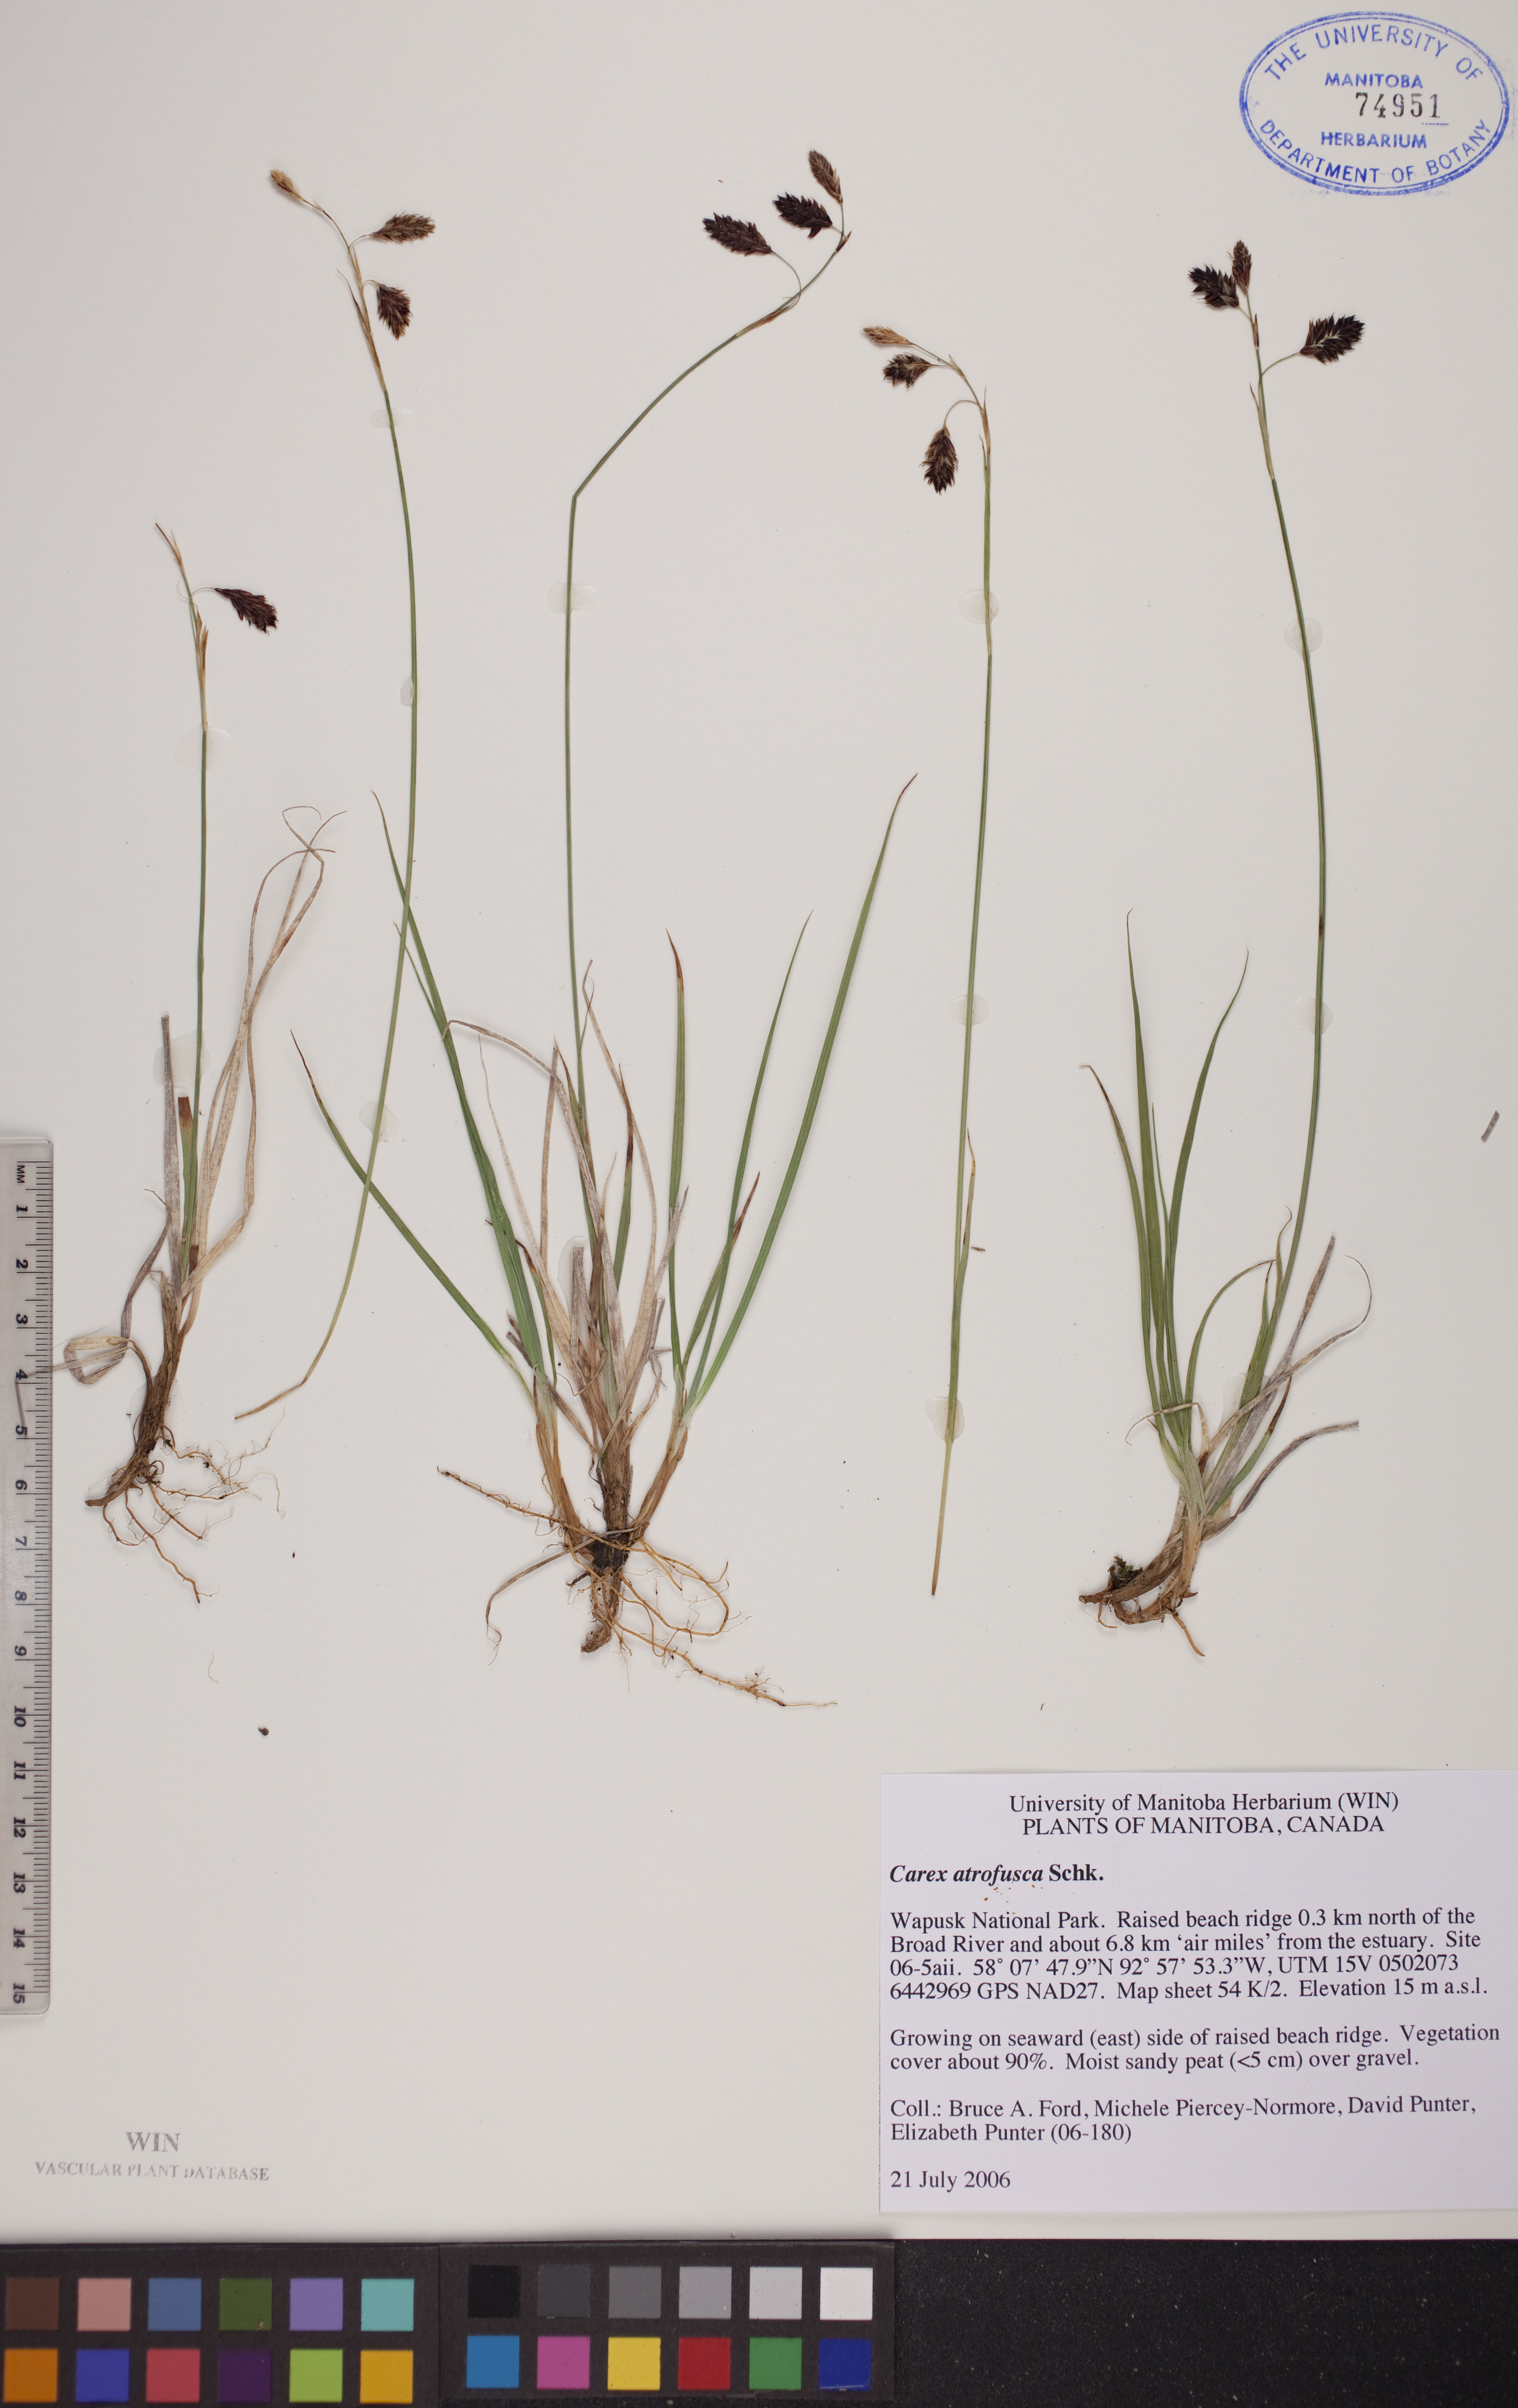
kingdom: Plantae
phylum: Tracheophyta
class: Liliopsida
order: Poales
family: Cyperaceae
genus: Carex
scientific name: Carex pichinchensis
